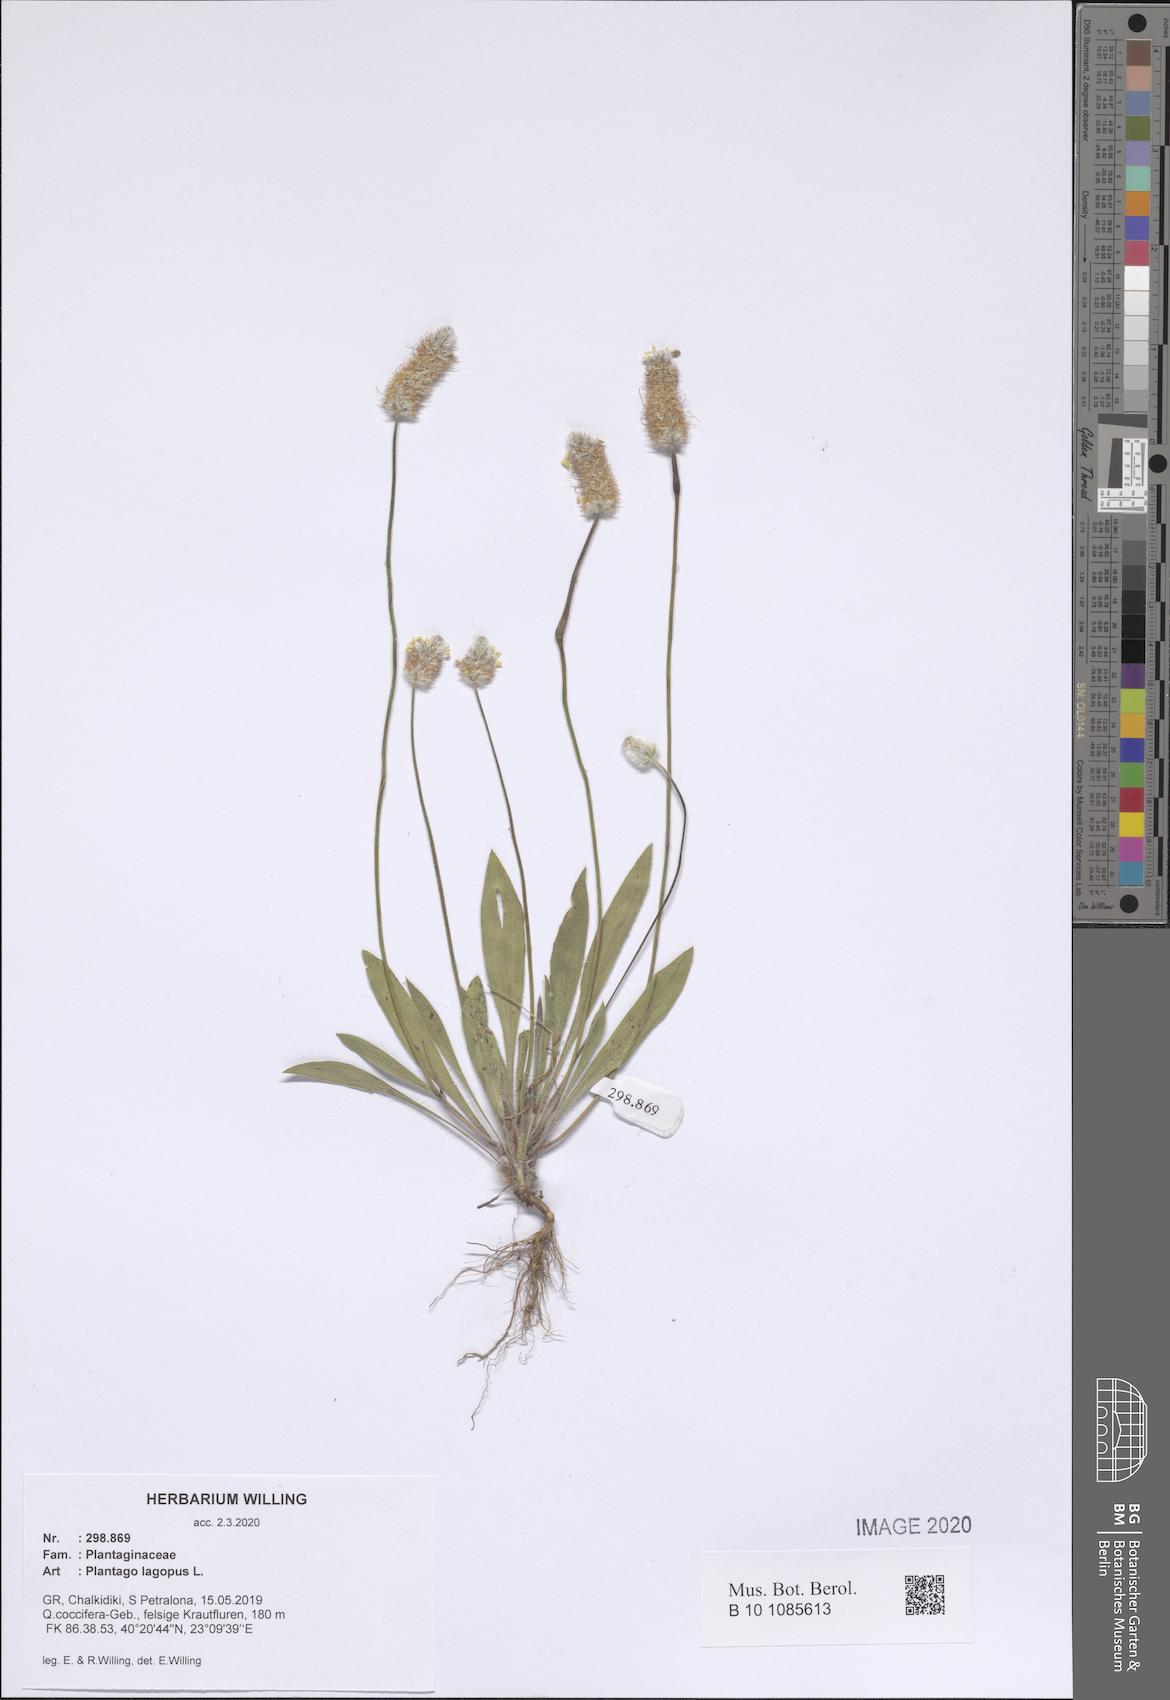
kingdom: Plantae
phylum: Tracheophyta
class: Magnoliopsida
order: Lamiales
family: Plantaginaceae
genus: Plantago
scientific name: Plantago lagopus
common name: Hare-foot plantain
